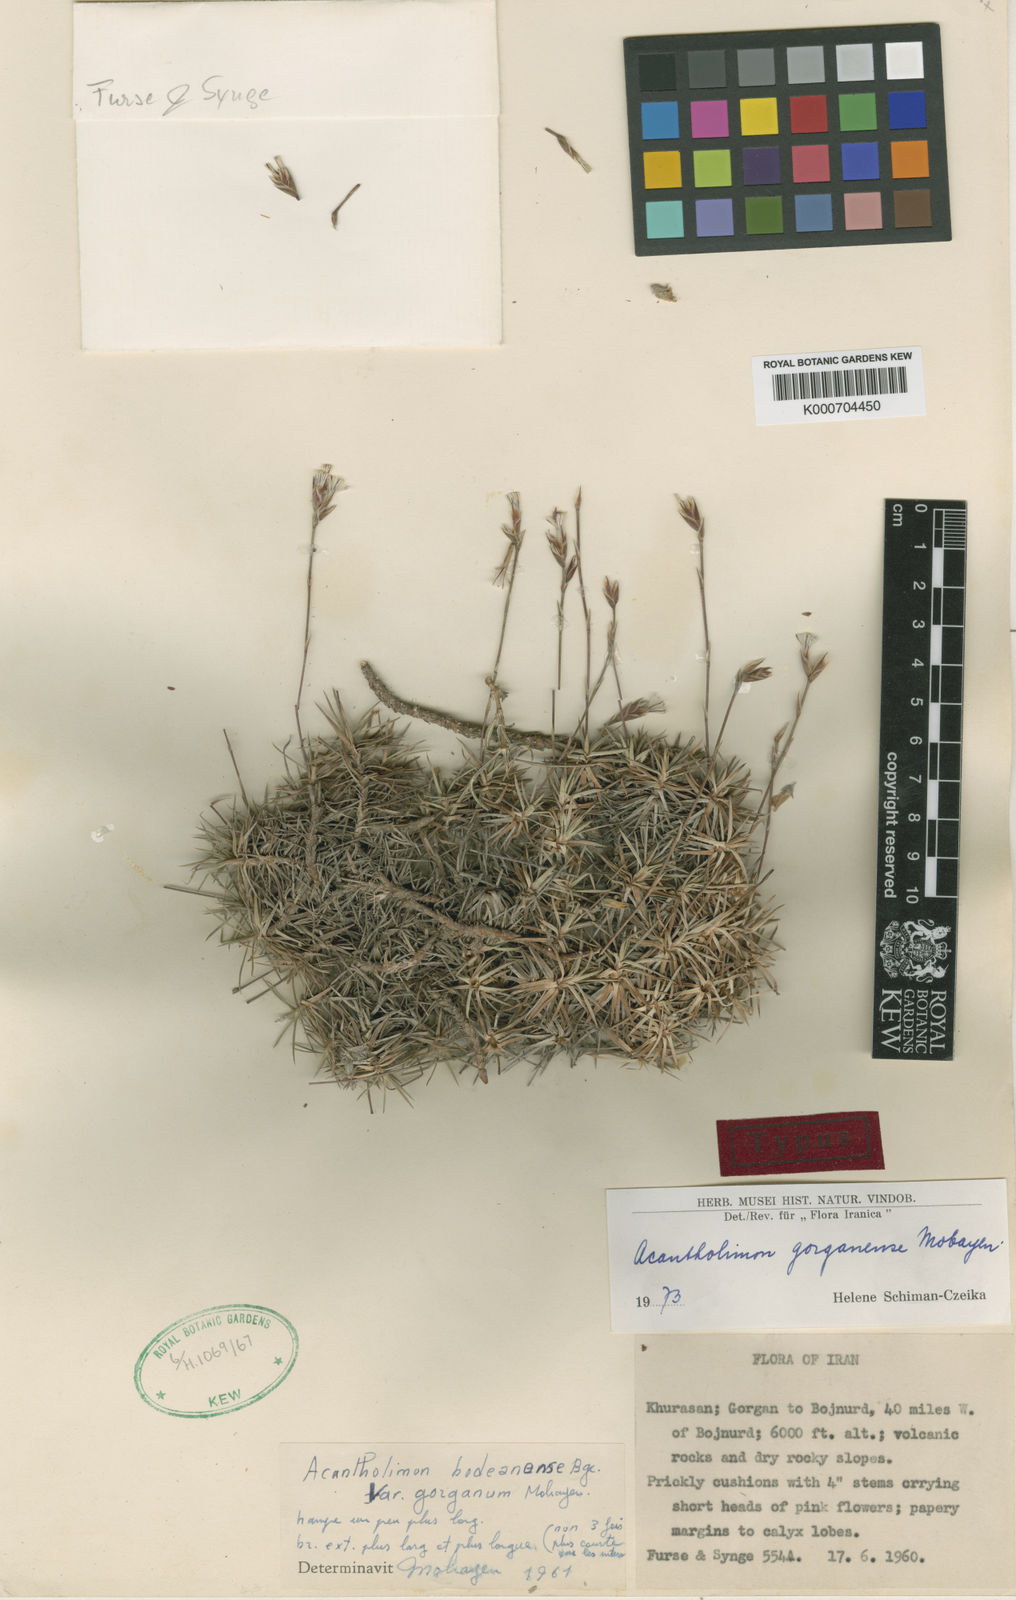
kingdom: Plantae
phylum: Tracheophyta
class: Magnoliopsida
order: Caryophyllales
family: Plumbaginaceae
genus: Acantholimon
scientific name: Acantholimon gorganense
